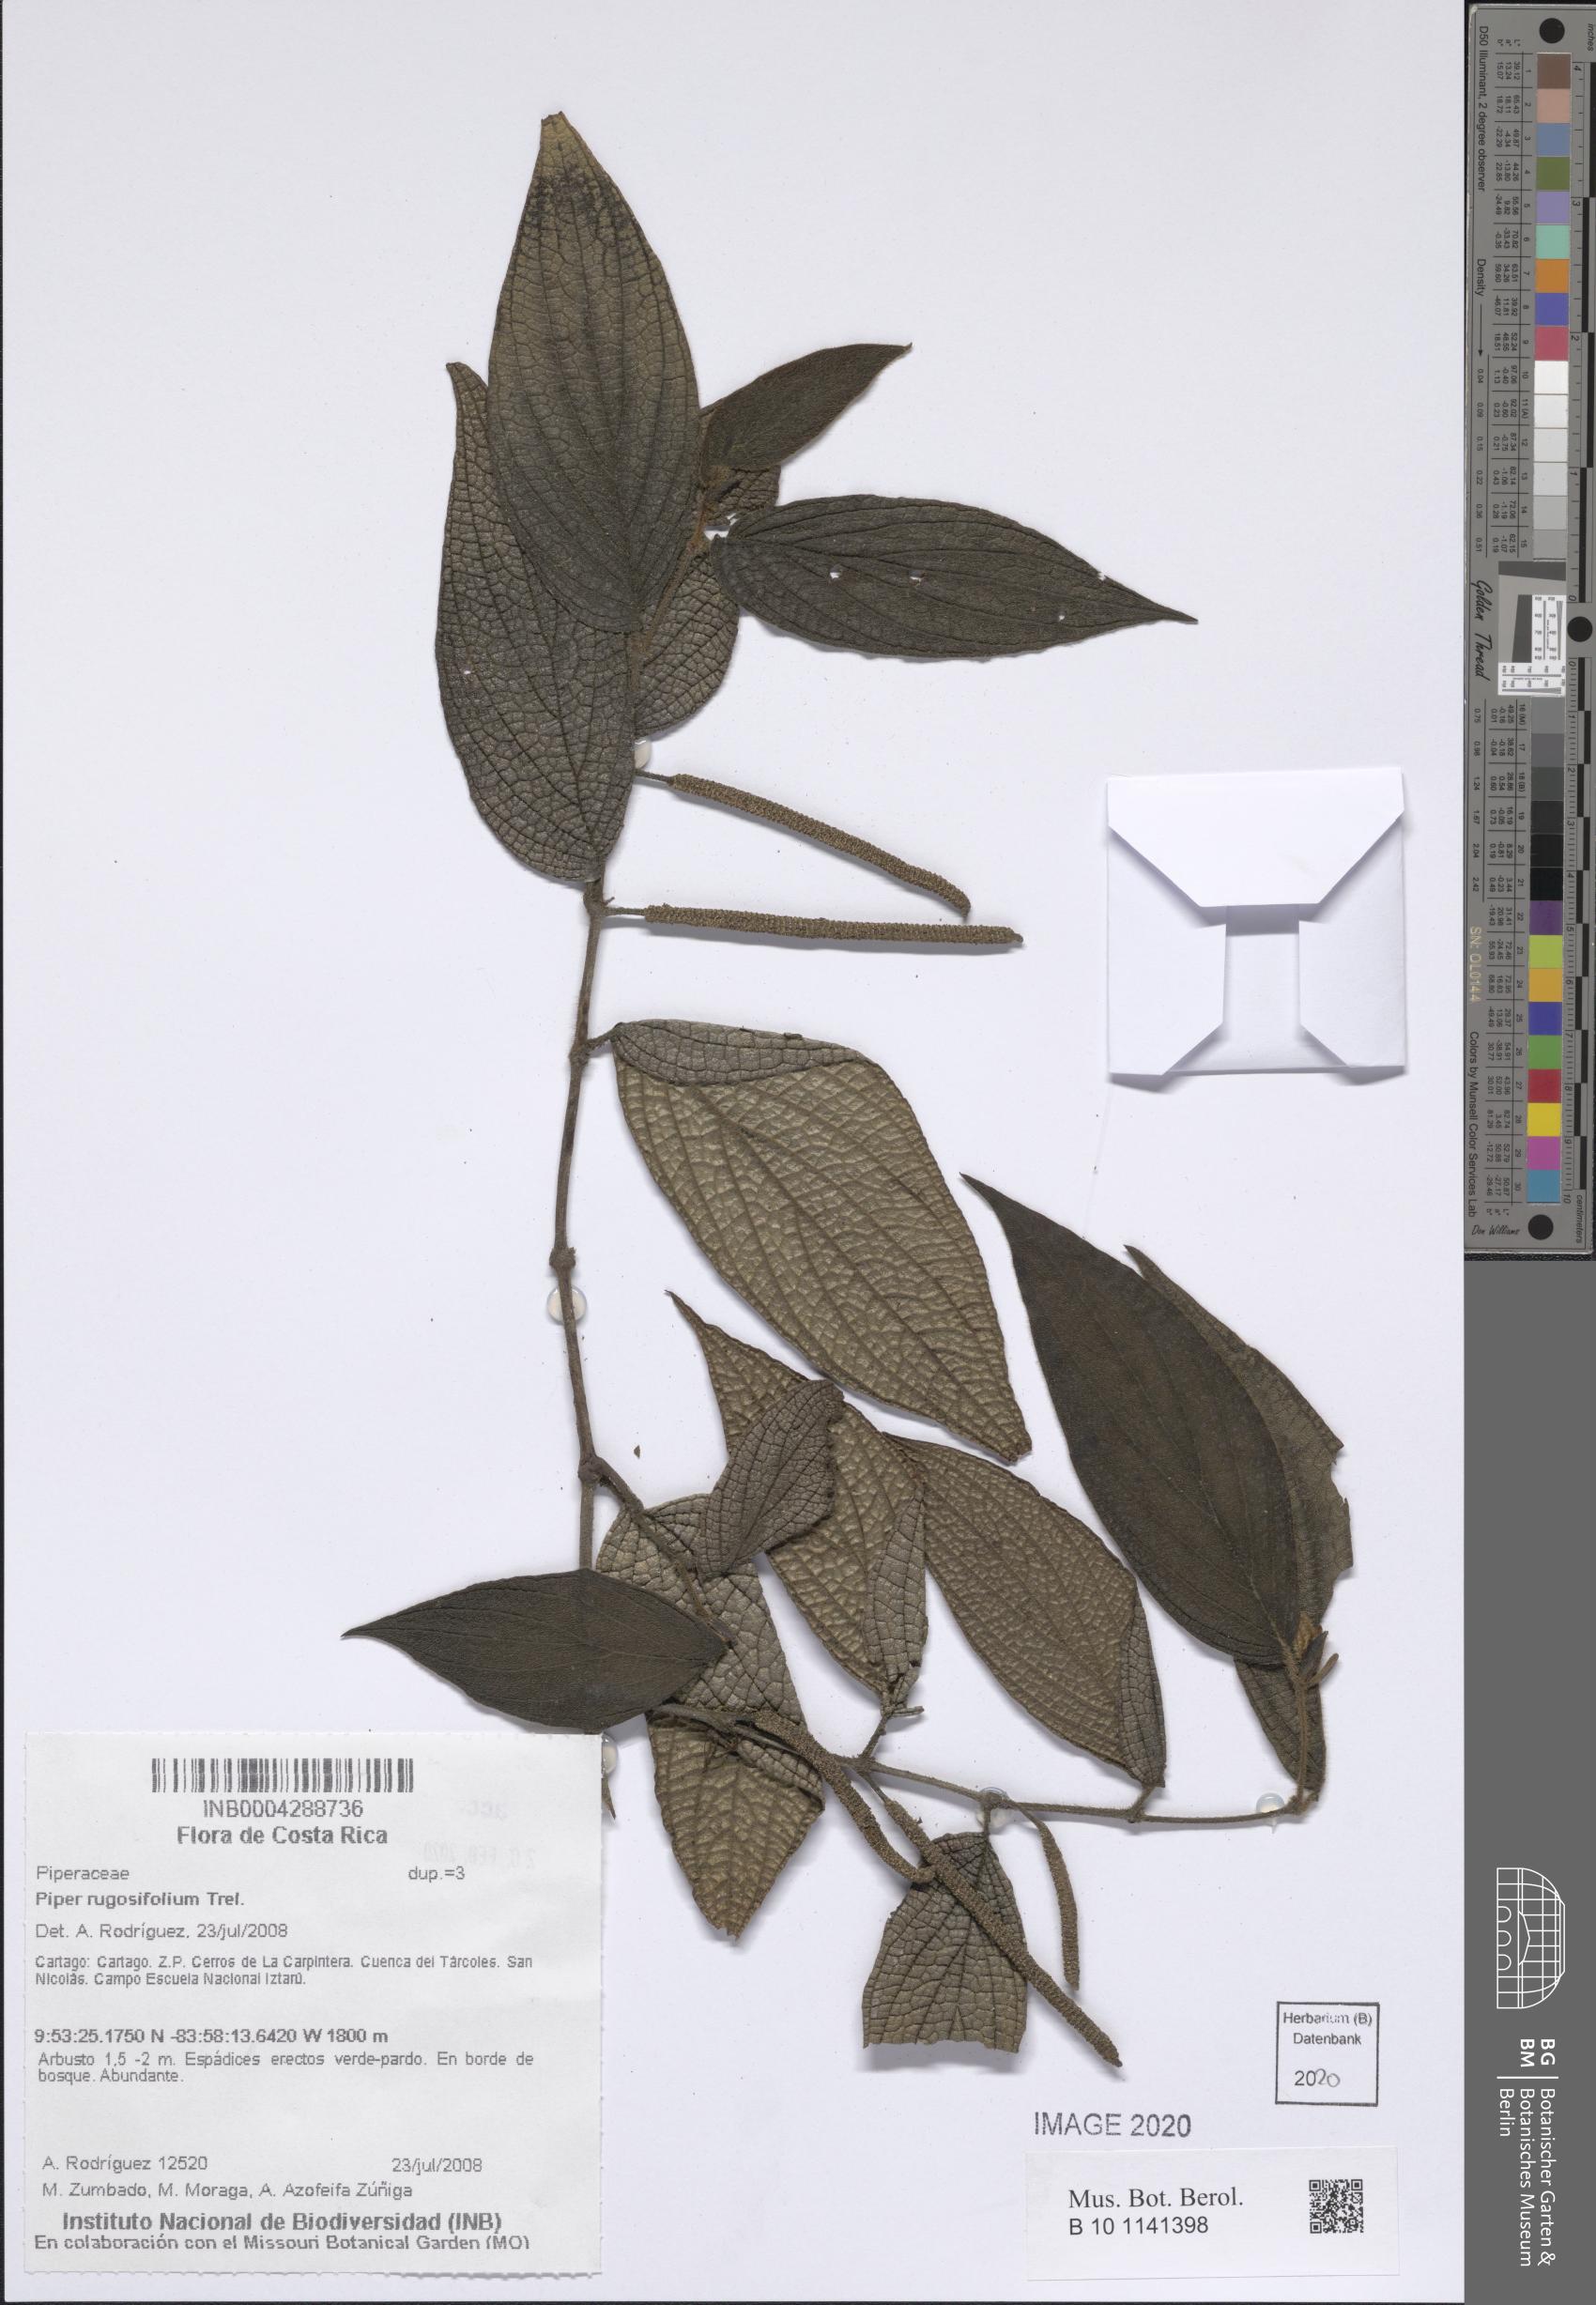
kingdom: Plantae
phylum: Tracheophyta
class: Magnoliopsida
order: Piperales
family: Piperaceae
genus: Piper
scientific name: Piper rugosifolium
